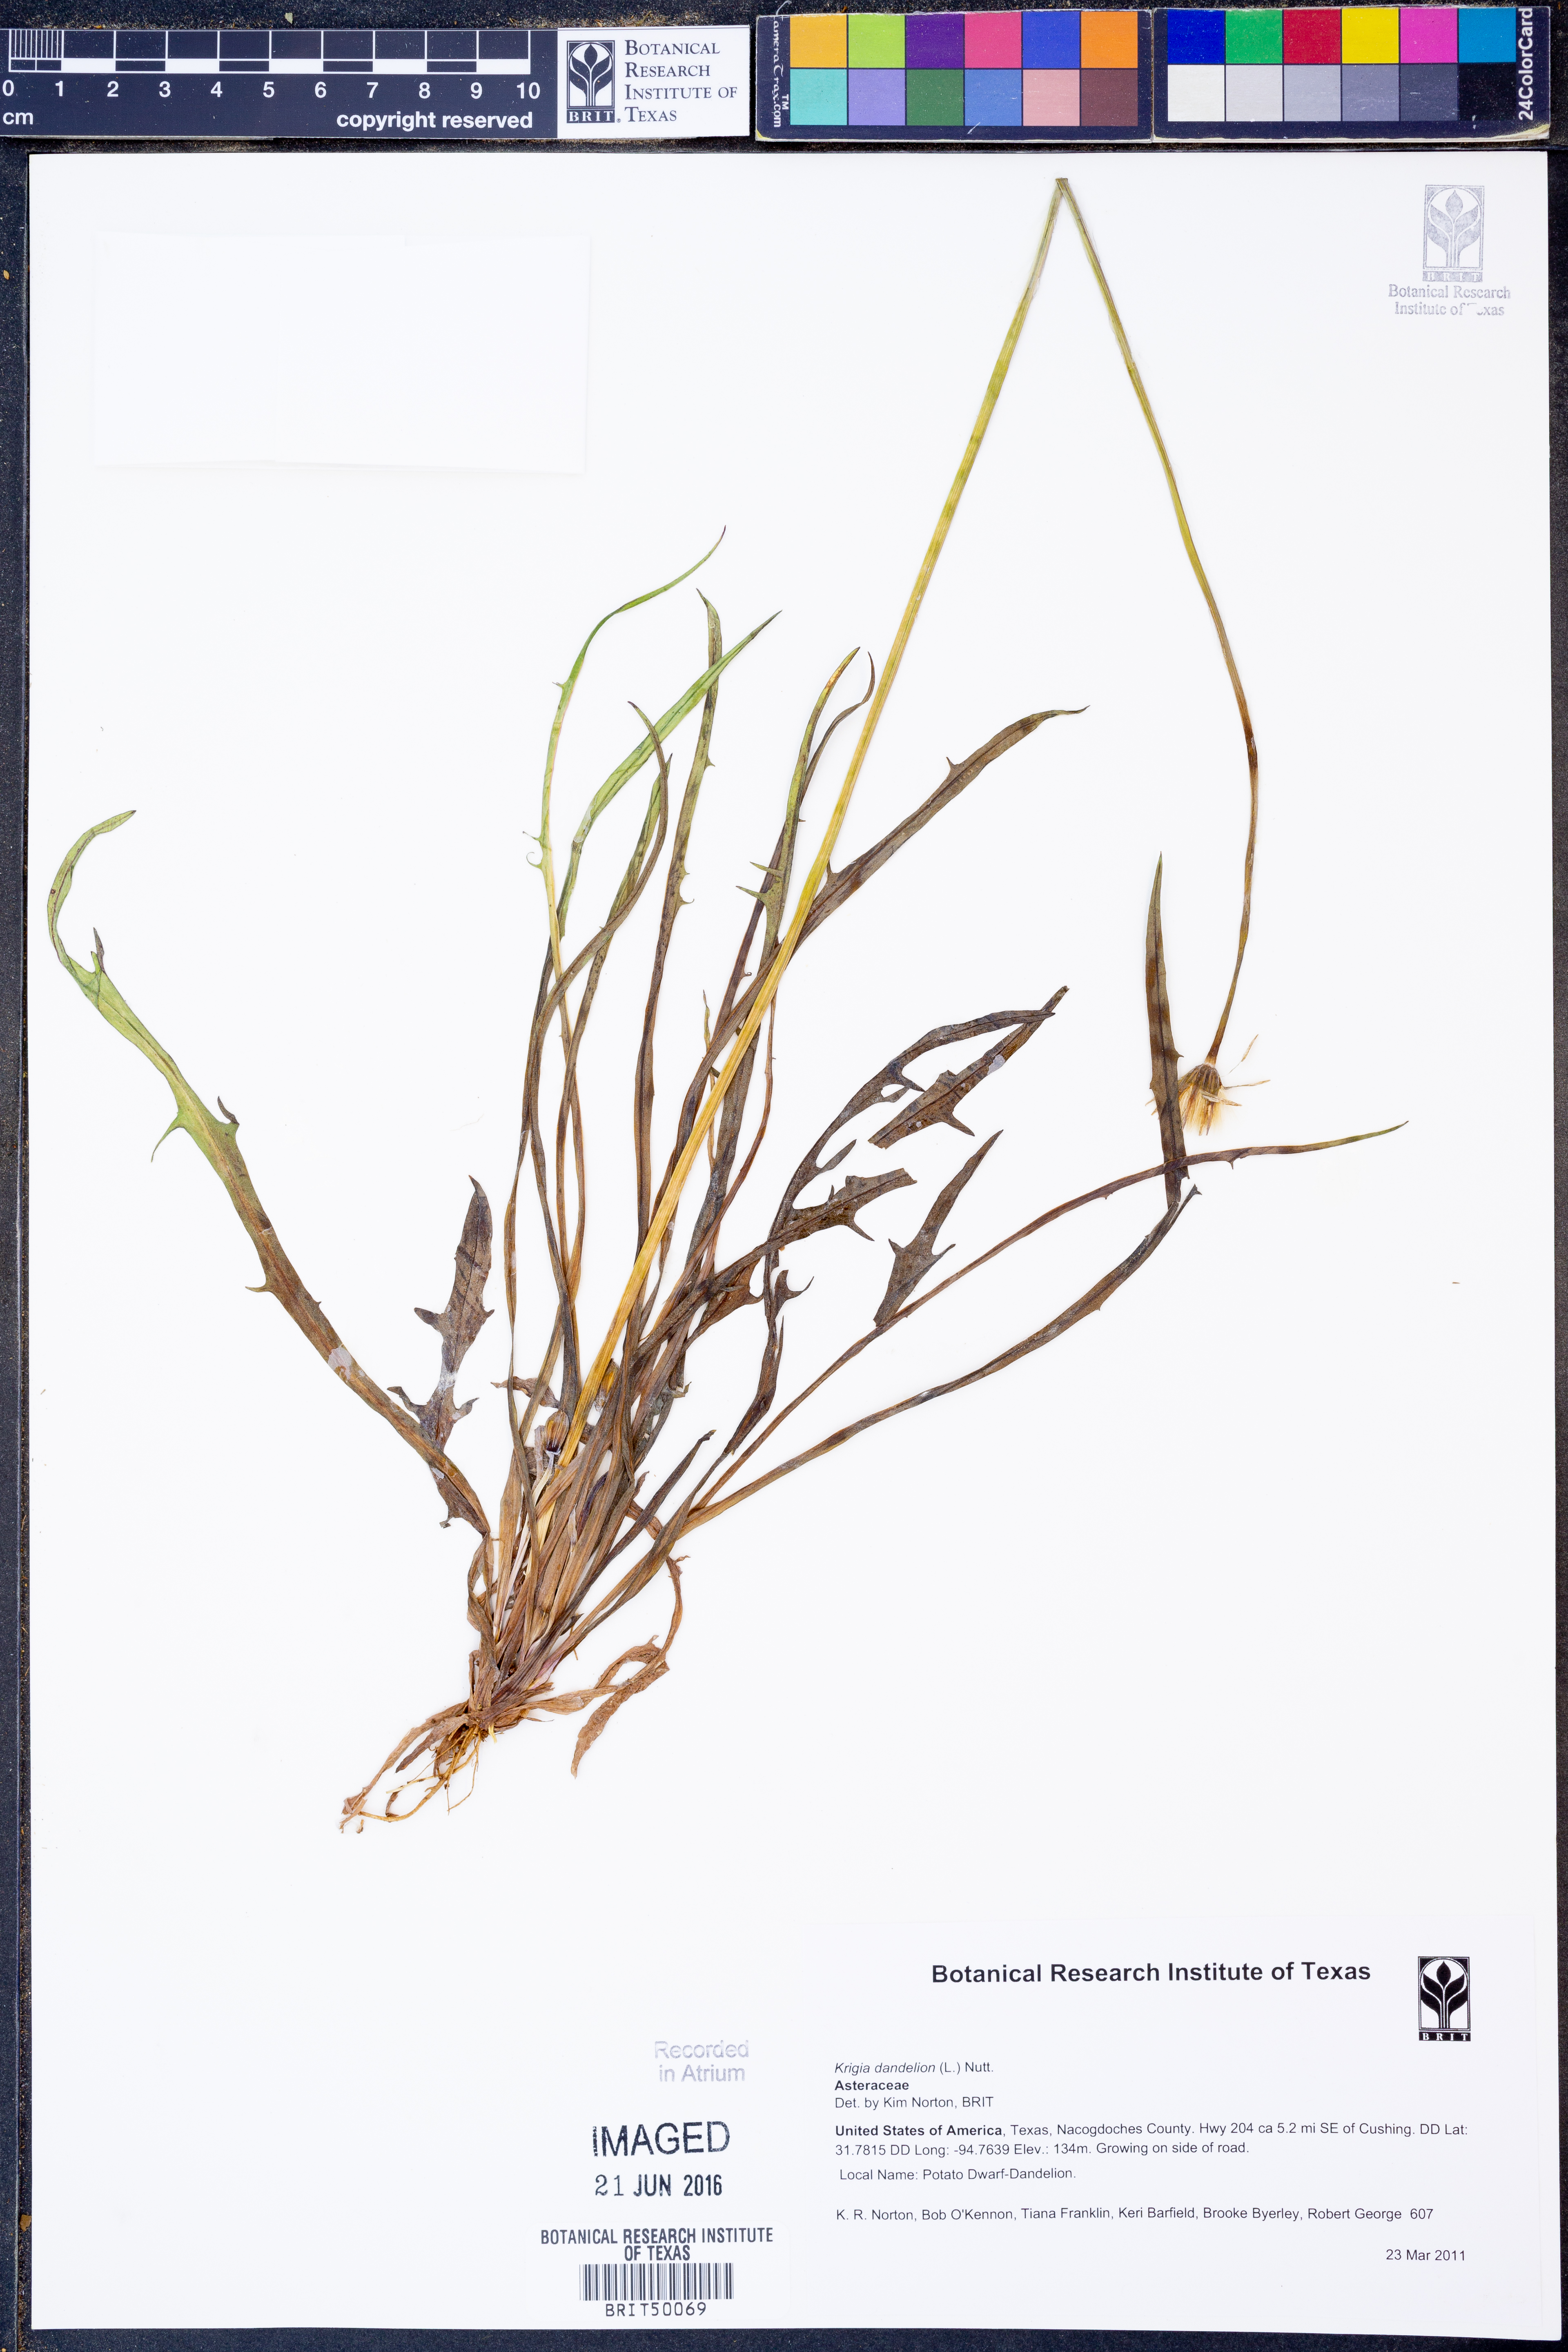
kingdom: Plantae
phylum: Tracheophyta
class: Magnoliopsida
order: Asterales
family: Asteraceae
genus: Krigia
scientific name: Krigia dandelion
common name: Colonial dwarf-dandelion
